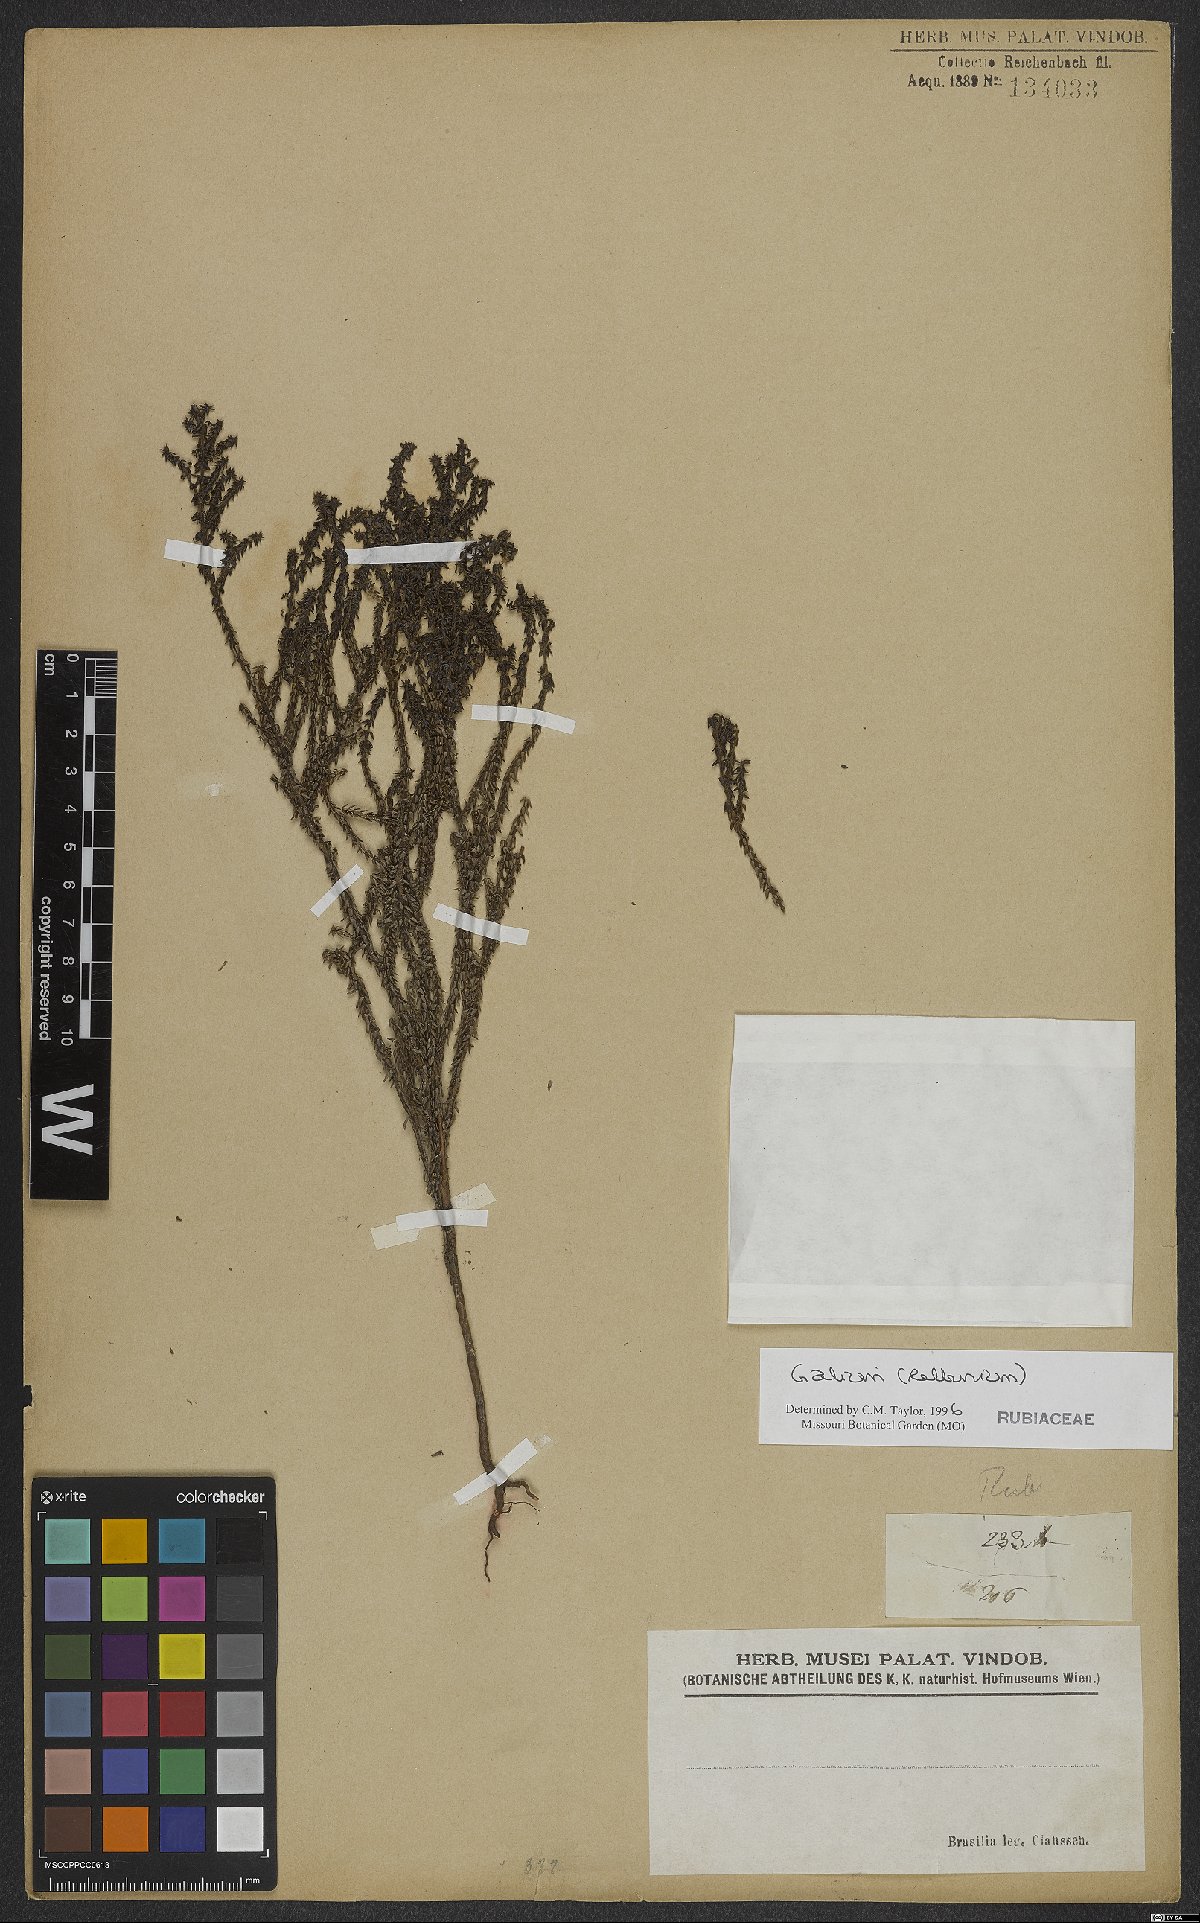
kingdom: Plantae
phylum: Tracheophyta
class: Magnoliopsida
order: Gentianales
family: Rubiaceae
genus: Galium
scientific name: Galium
